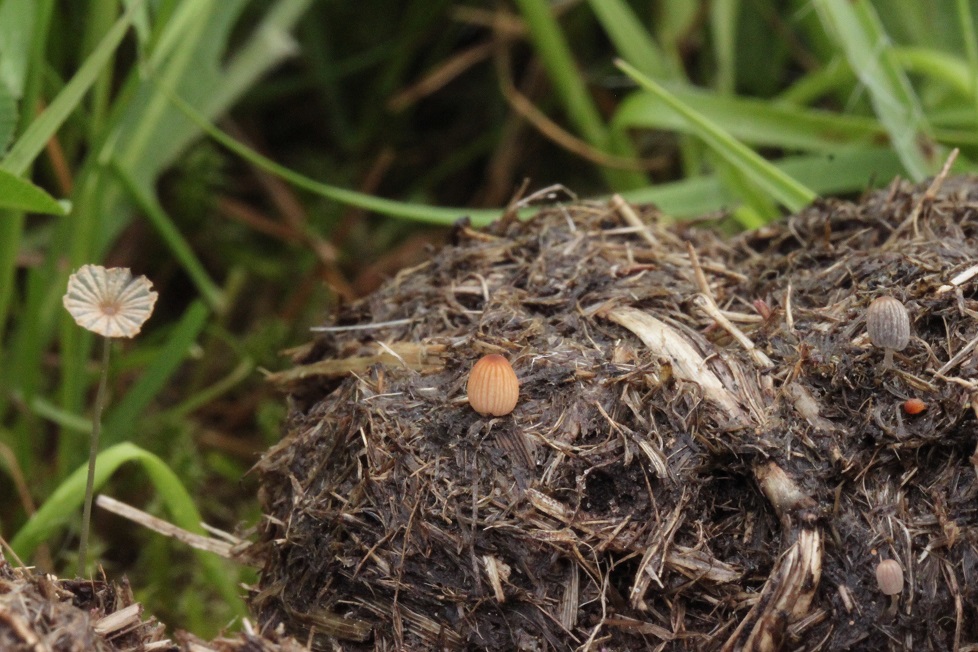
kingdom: Fungi
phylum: Basidiomycota
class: Agaricomycetes
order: Agaricales
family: Psathyrellaceae
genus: Parasola
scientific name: Parasola misera
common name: lillebitte hjulhat
